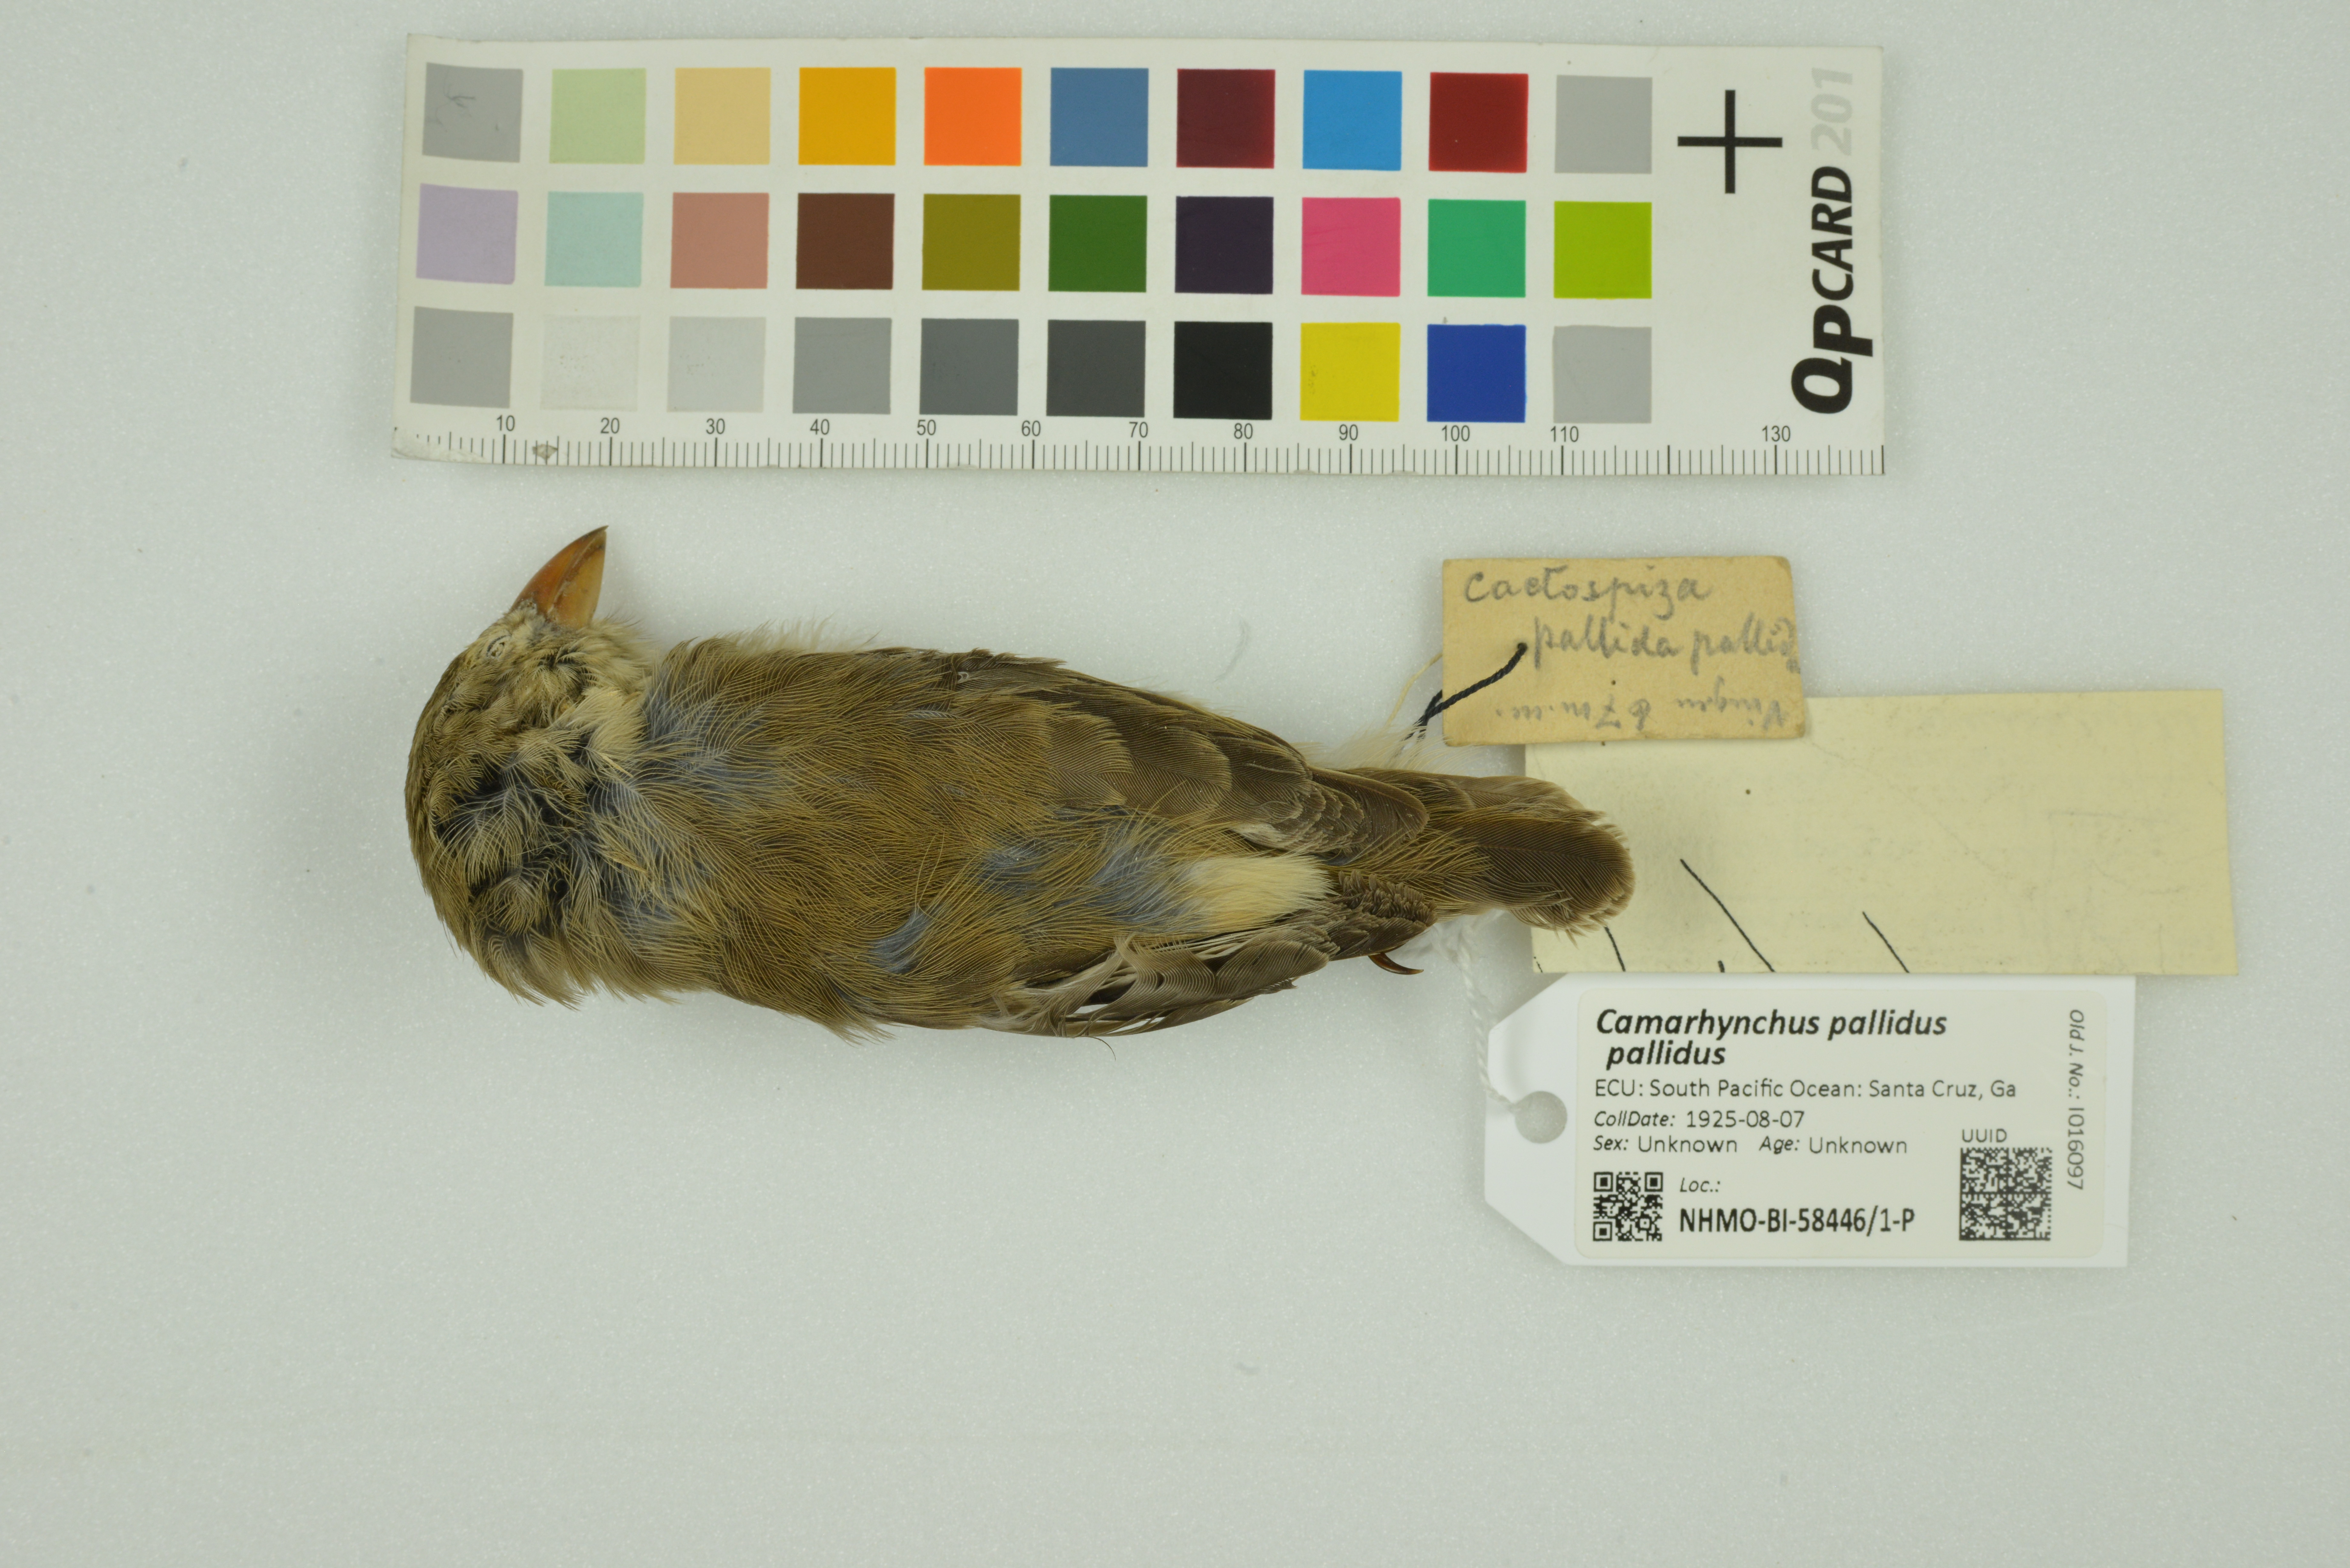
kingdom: Animalia
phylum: Chordata
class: Aves
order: Passeriformes
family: Thraupidae
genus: Camarhynchus
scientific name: Camarhynchus pallidus
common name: Woodpecker finch
